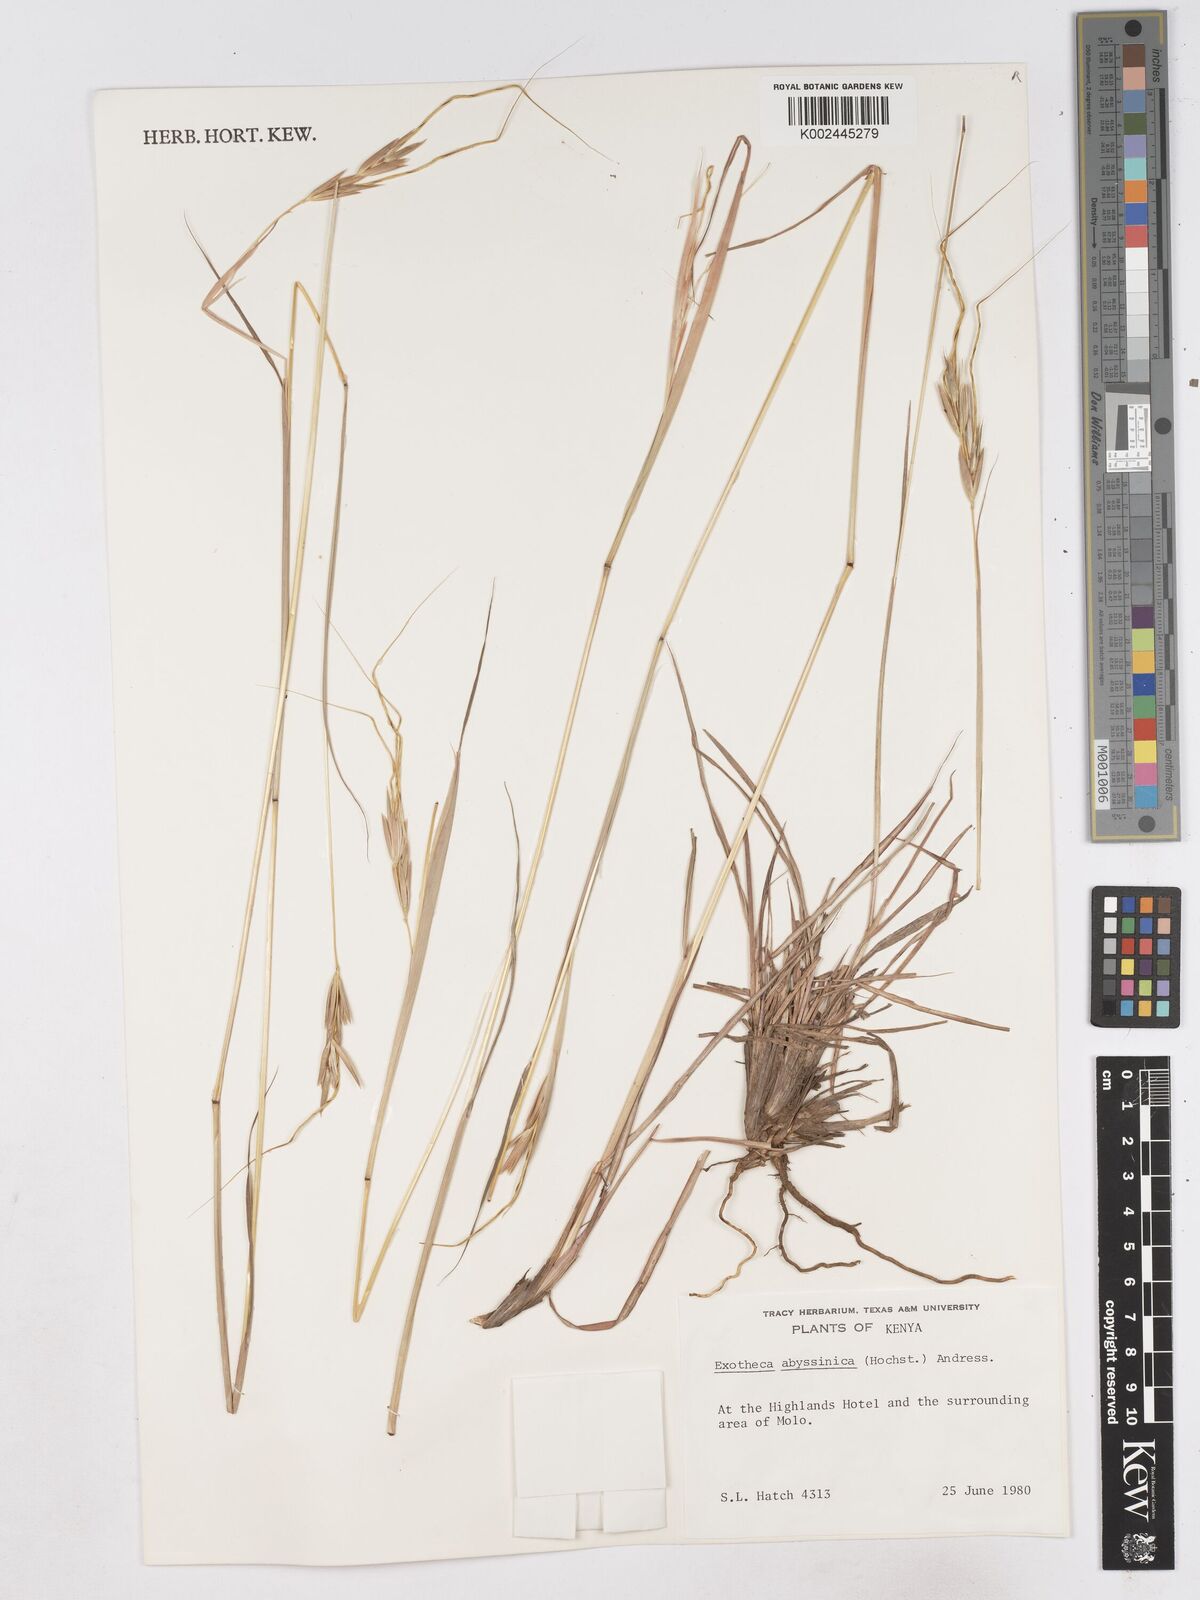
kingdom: Plantae
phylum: Tracheophyta
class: Liliopsida
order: Poales
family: Poaceae
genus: Exotheca
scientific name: Exotheca abyssinica
